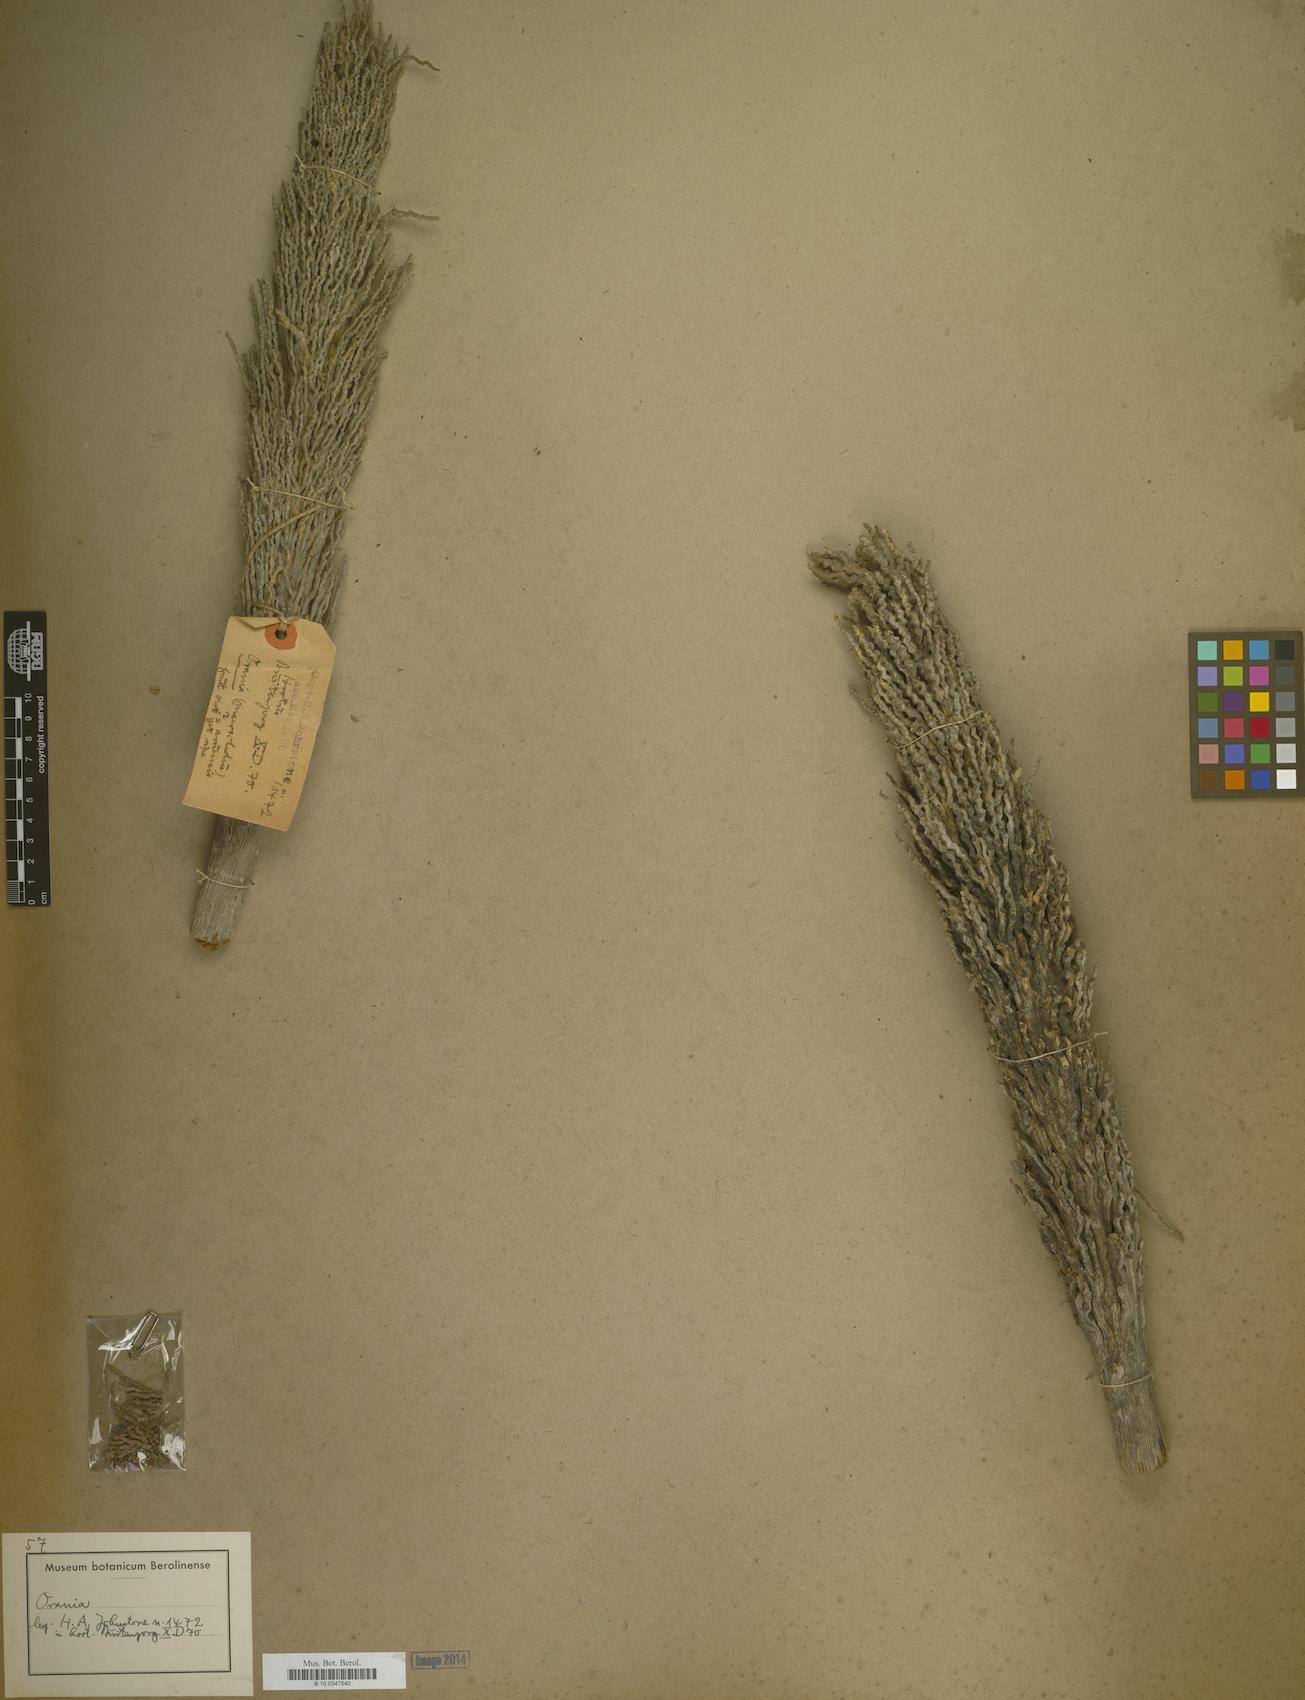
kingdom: Plantae
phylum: Tracheophyta
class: Liliopsida
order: Arecales
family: Arecaceae
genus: Orania
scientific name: Orania
